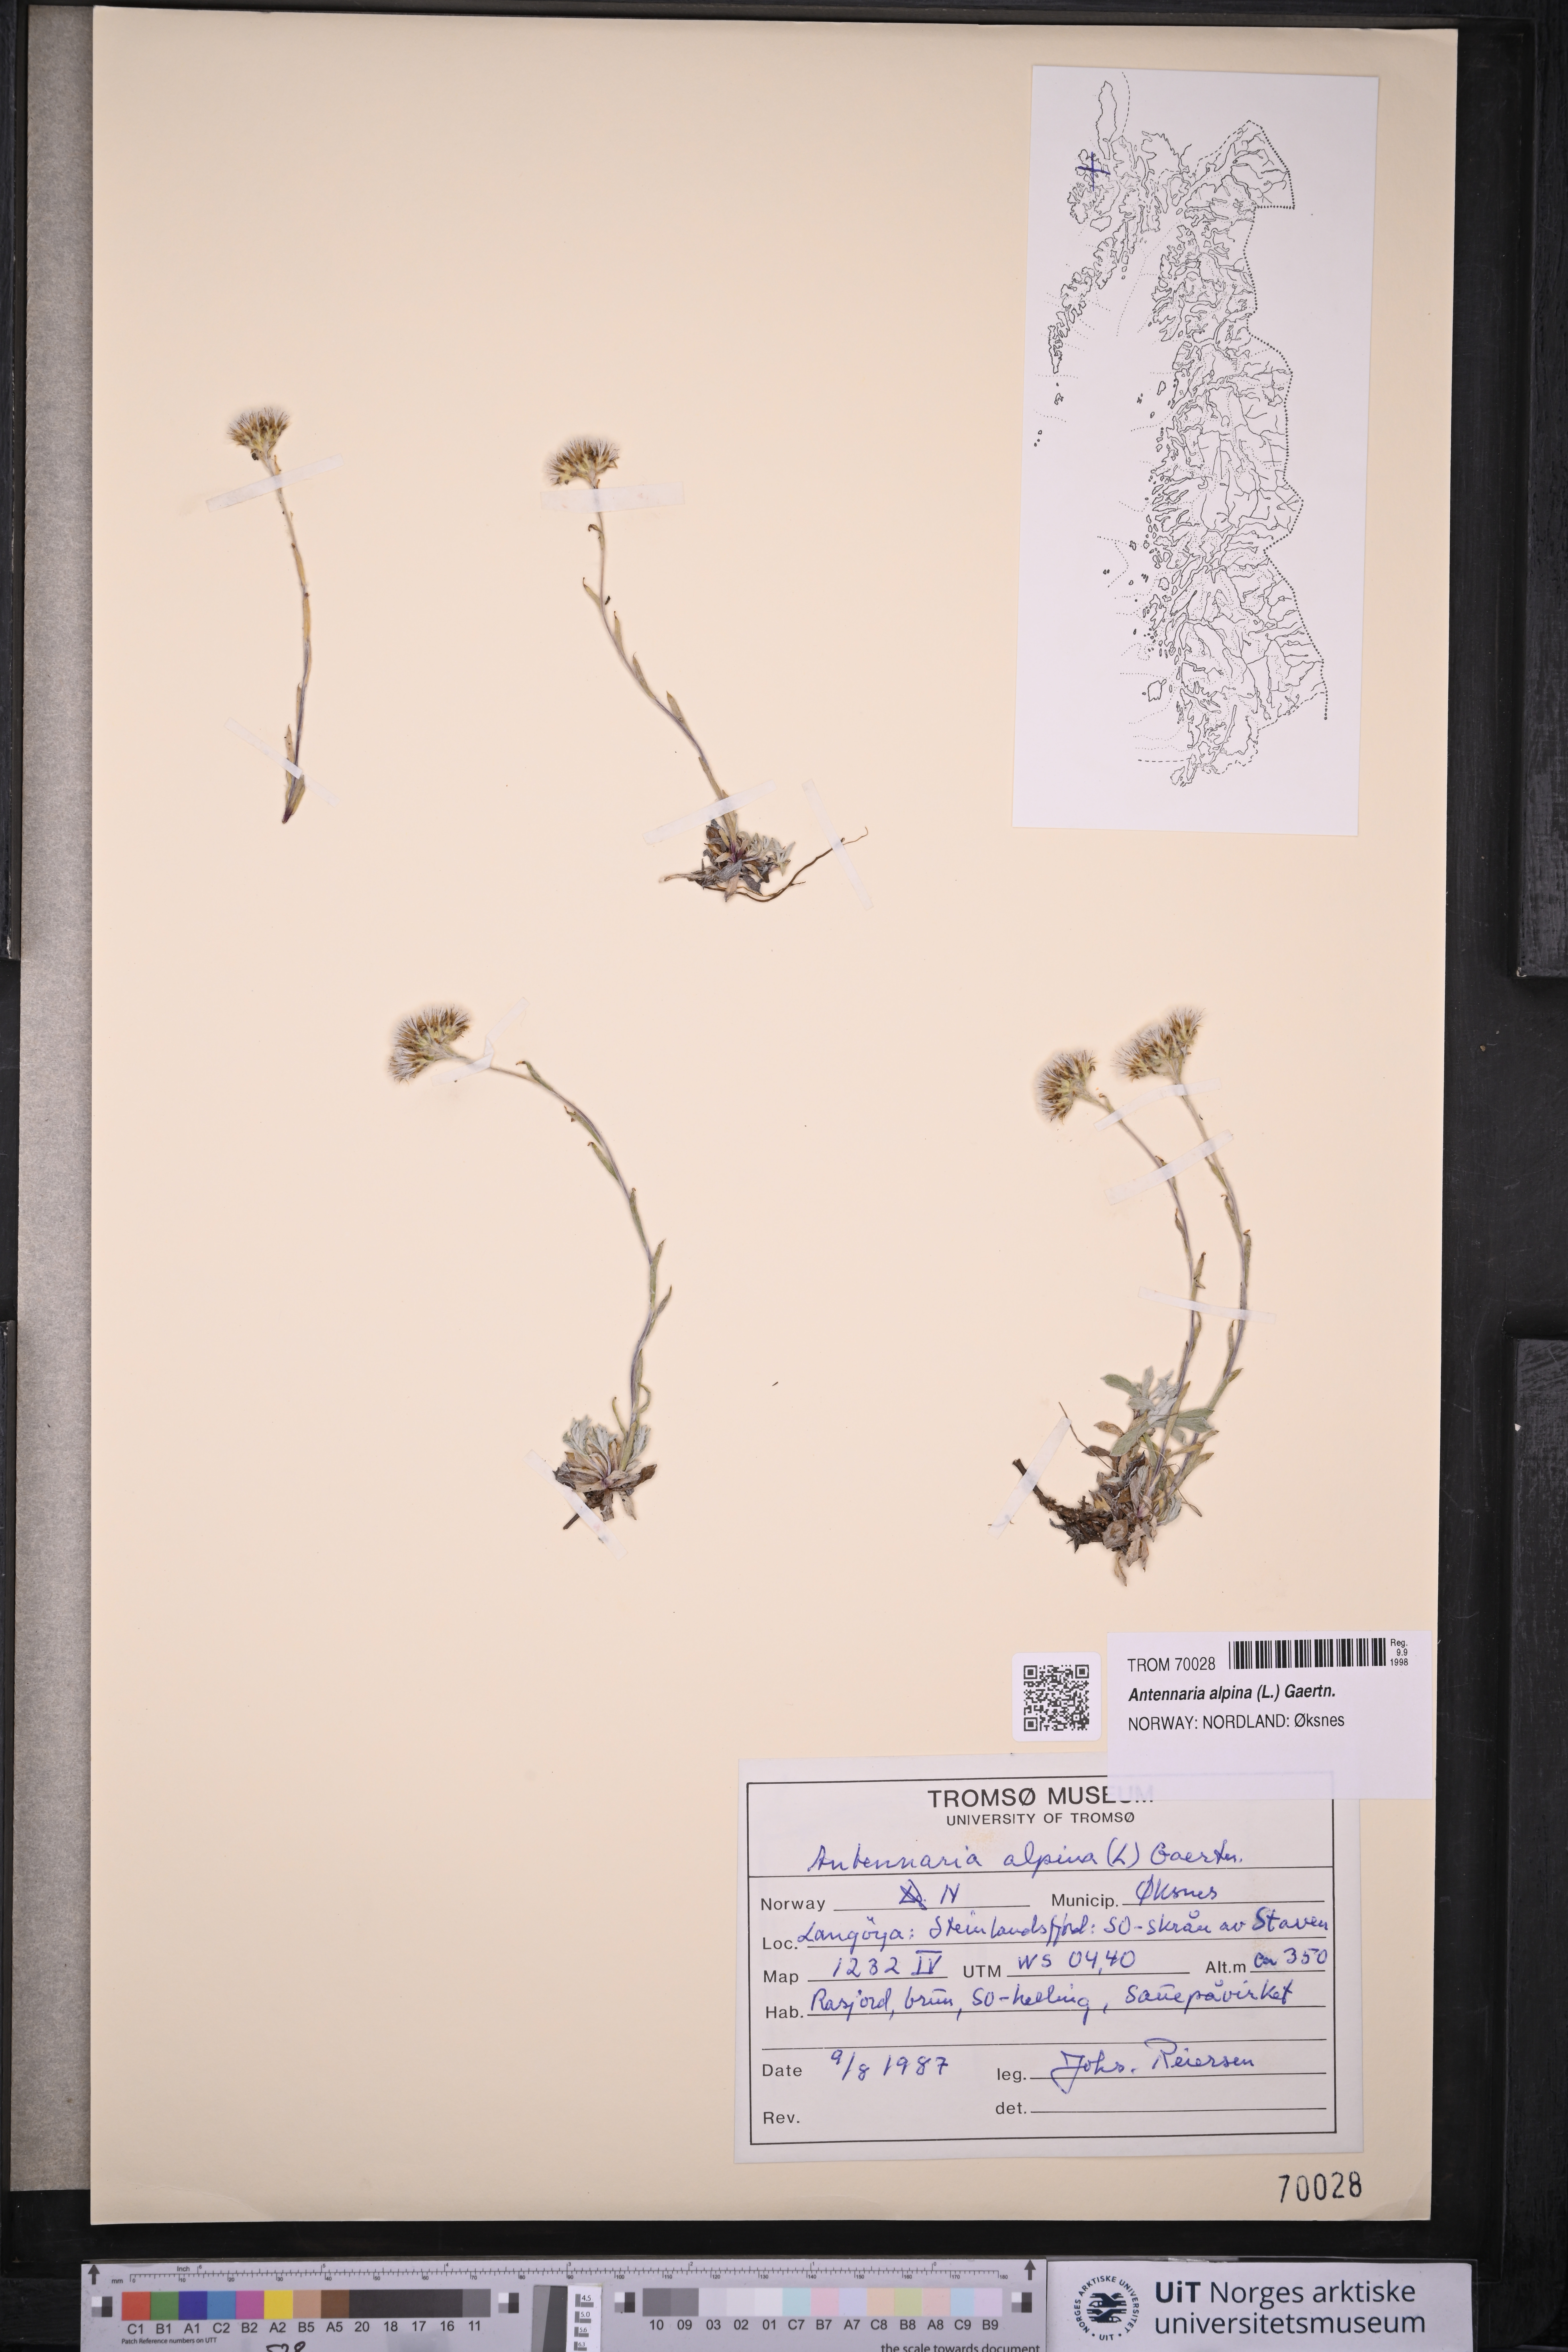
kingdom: Plantae
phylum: Tracheophyta
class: Magnoliopsida
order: Asterales
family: Asteraceae
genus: Antennaria
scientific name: Antennaria alpina
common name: Alpine pussytoes
